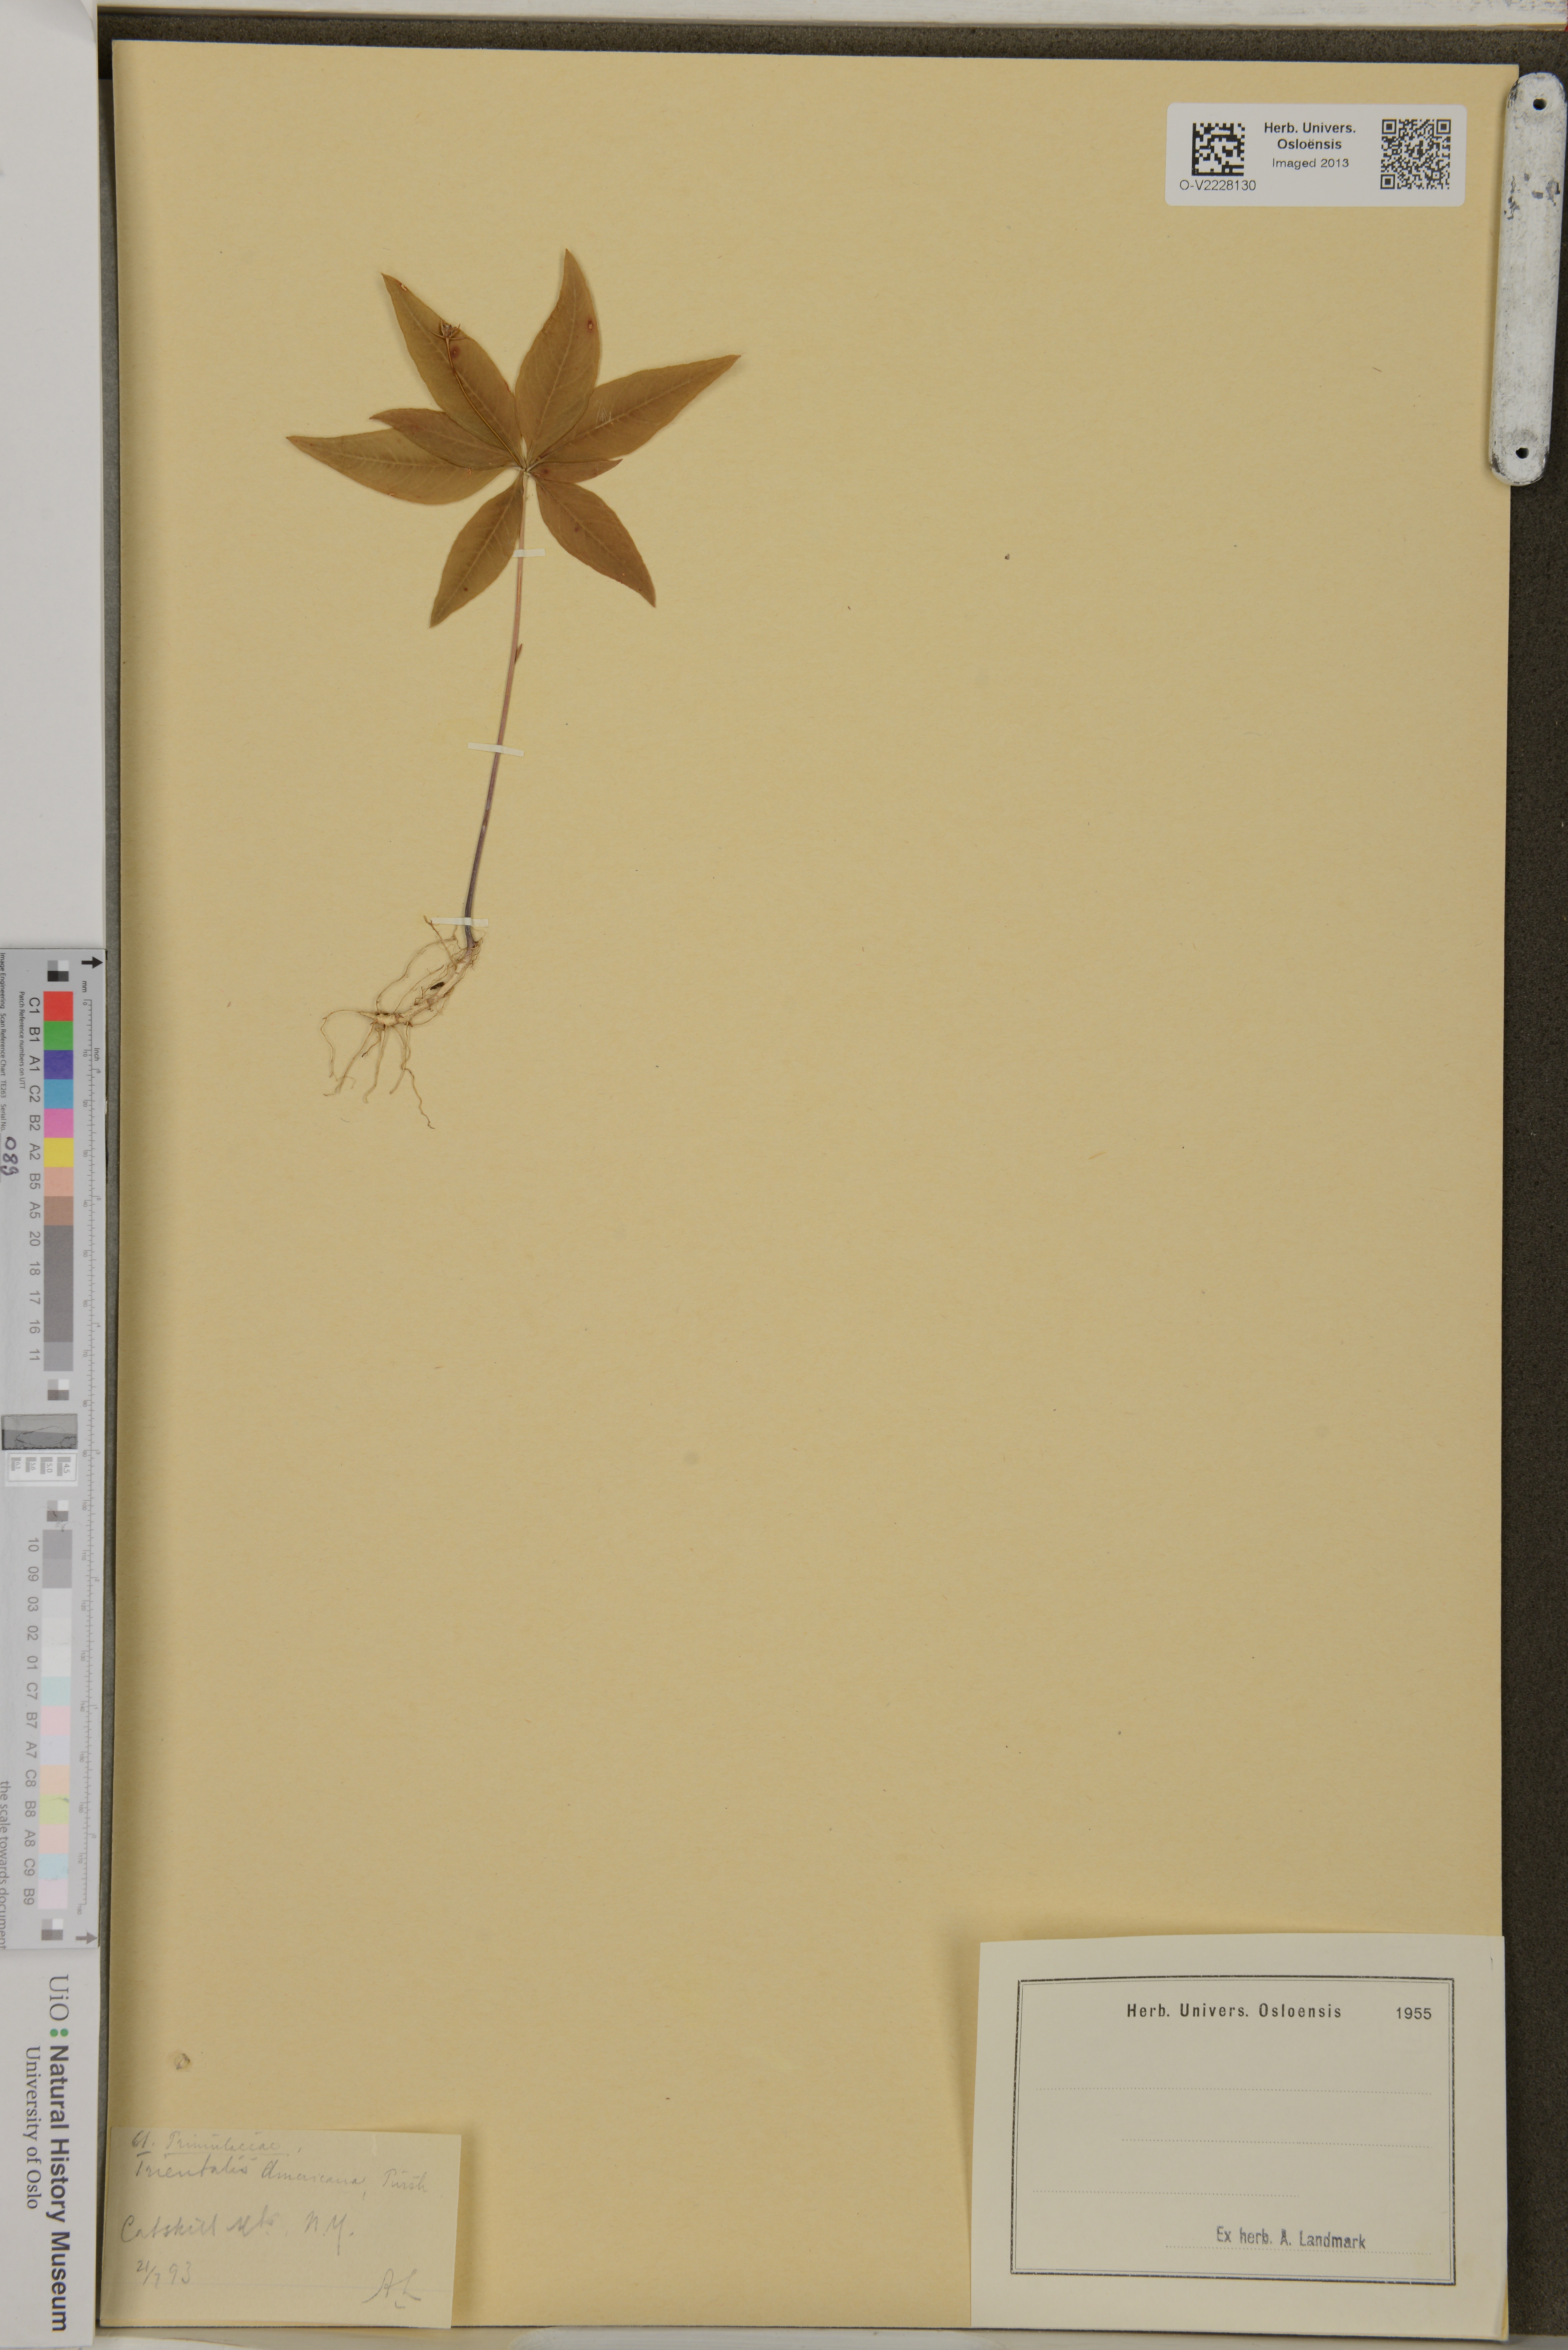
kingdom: Plantae
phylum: Tracheophyta
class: Magnoliopsida
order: Ericales
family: Primulaceae
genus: Lysimachia
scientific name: Lysimachia borealis
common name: American starflower
